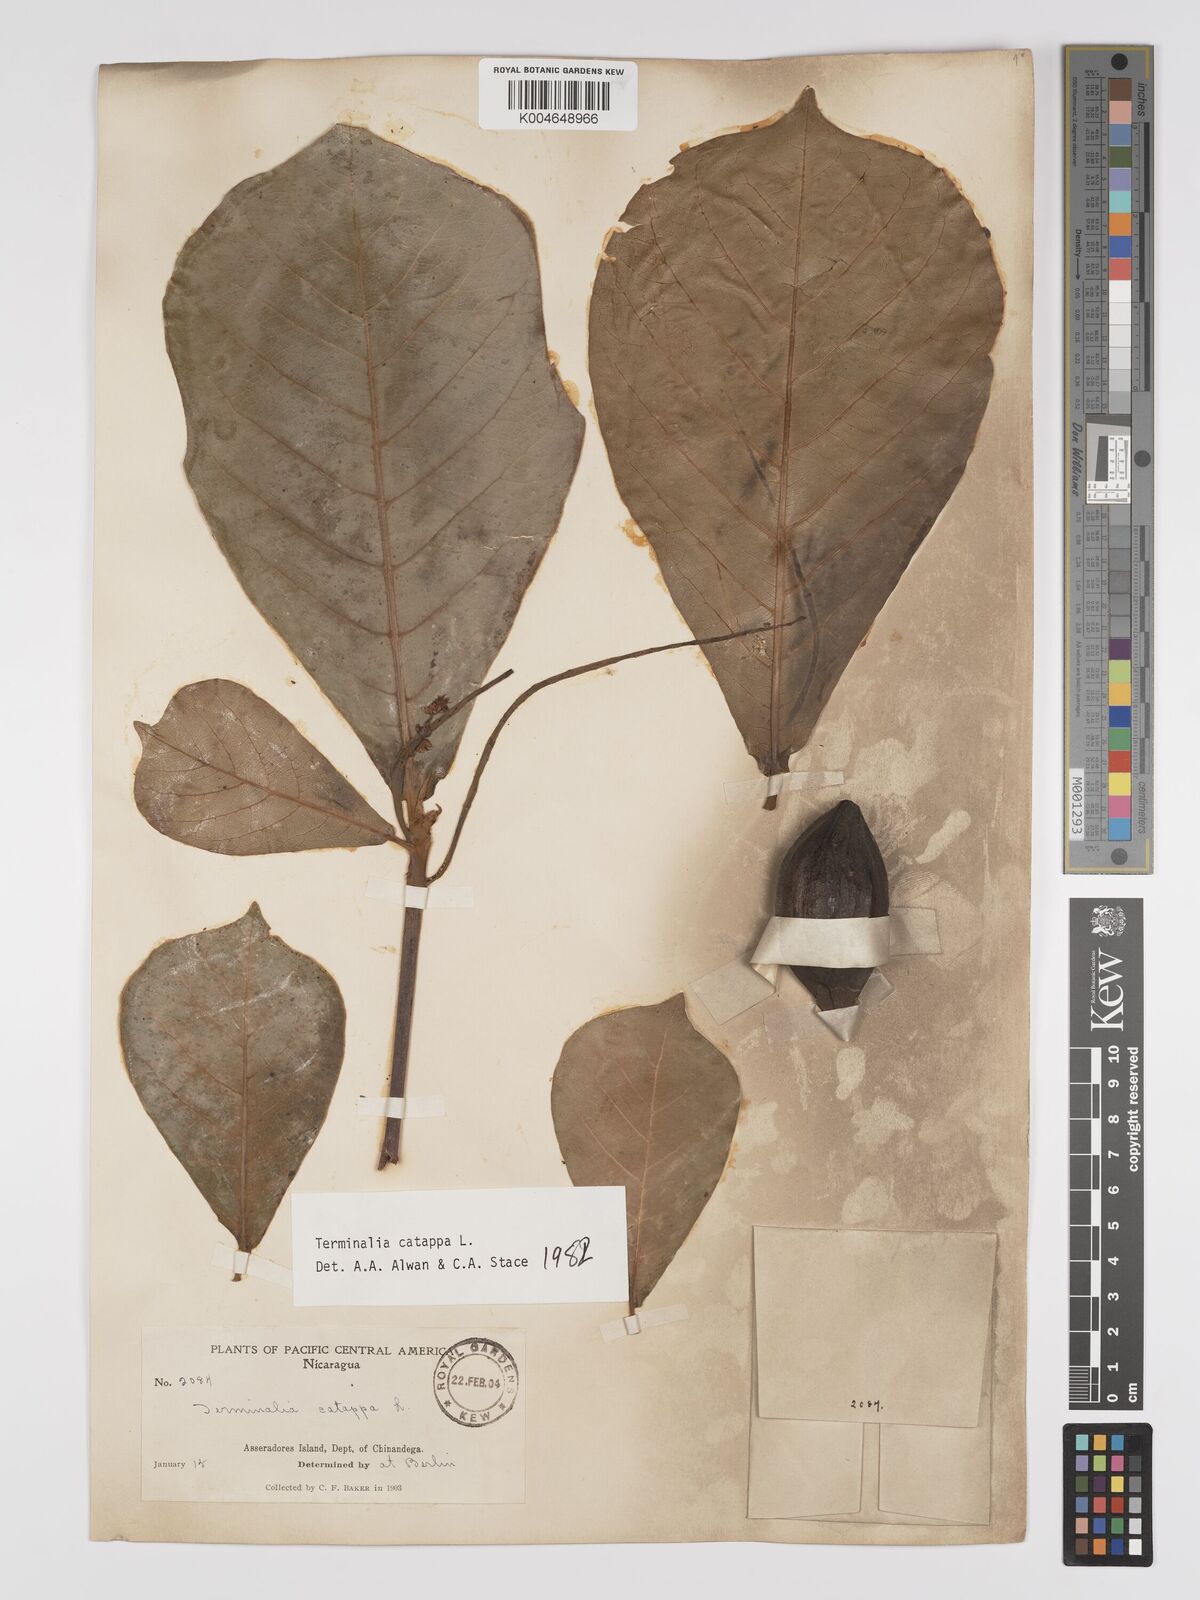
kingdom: Plantae
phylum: Tracheophyta
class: Magnoliopsida
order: Myrtales
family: Combretaceae
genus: Terminalia
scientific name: Terminalia catappa
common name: Tropical almond
